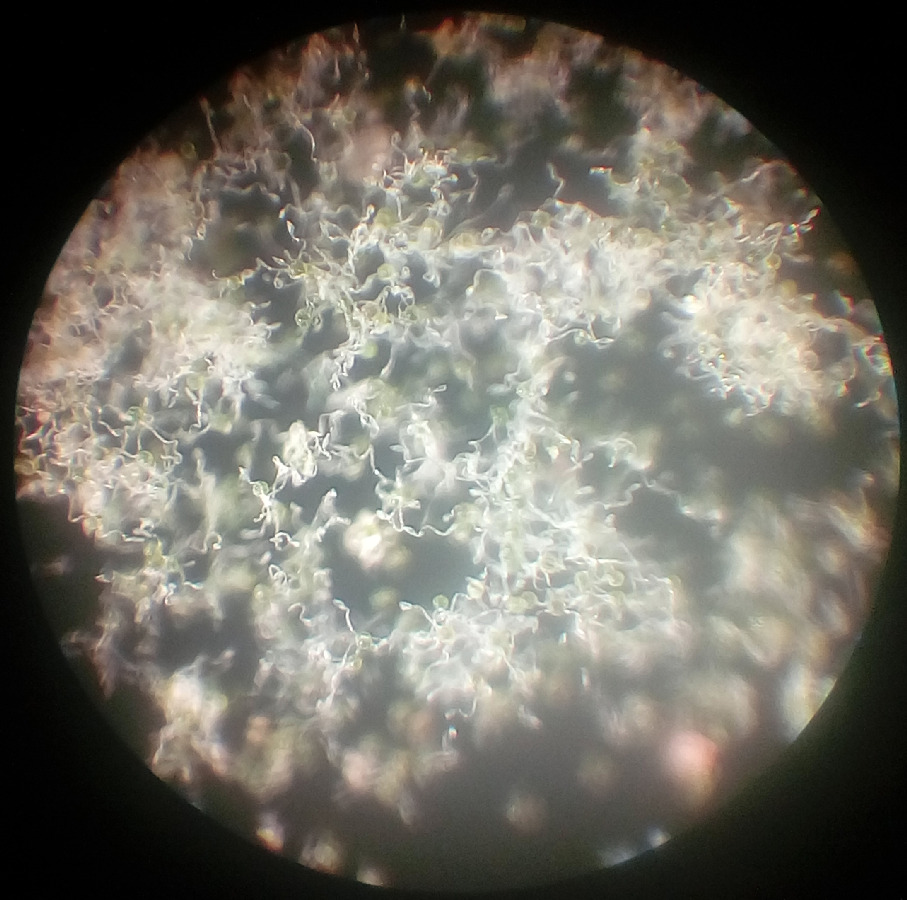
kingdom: Plantae
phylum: Tracheophyta
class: Polypodiopsida
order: Equisetales
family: Equisetaceae
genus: Equisetum
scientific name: Equisetum arvense
